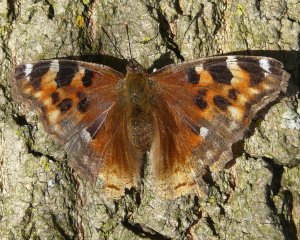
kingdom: Animalia
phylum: Arthropoda
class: Insecta
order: Lepidoptera
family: Nymphalidae
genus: Polygonia
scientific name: Polygonia vaualbum
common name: Compton Tortoiseshell
